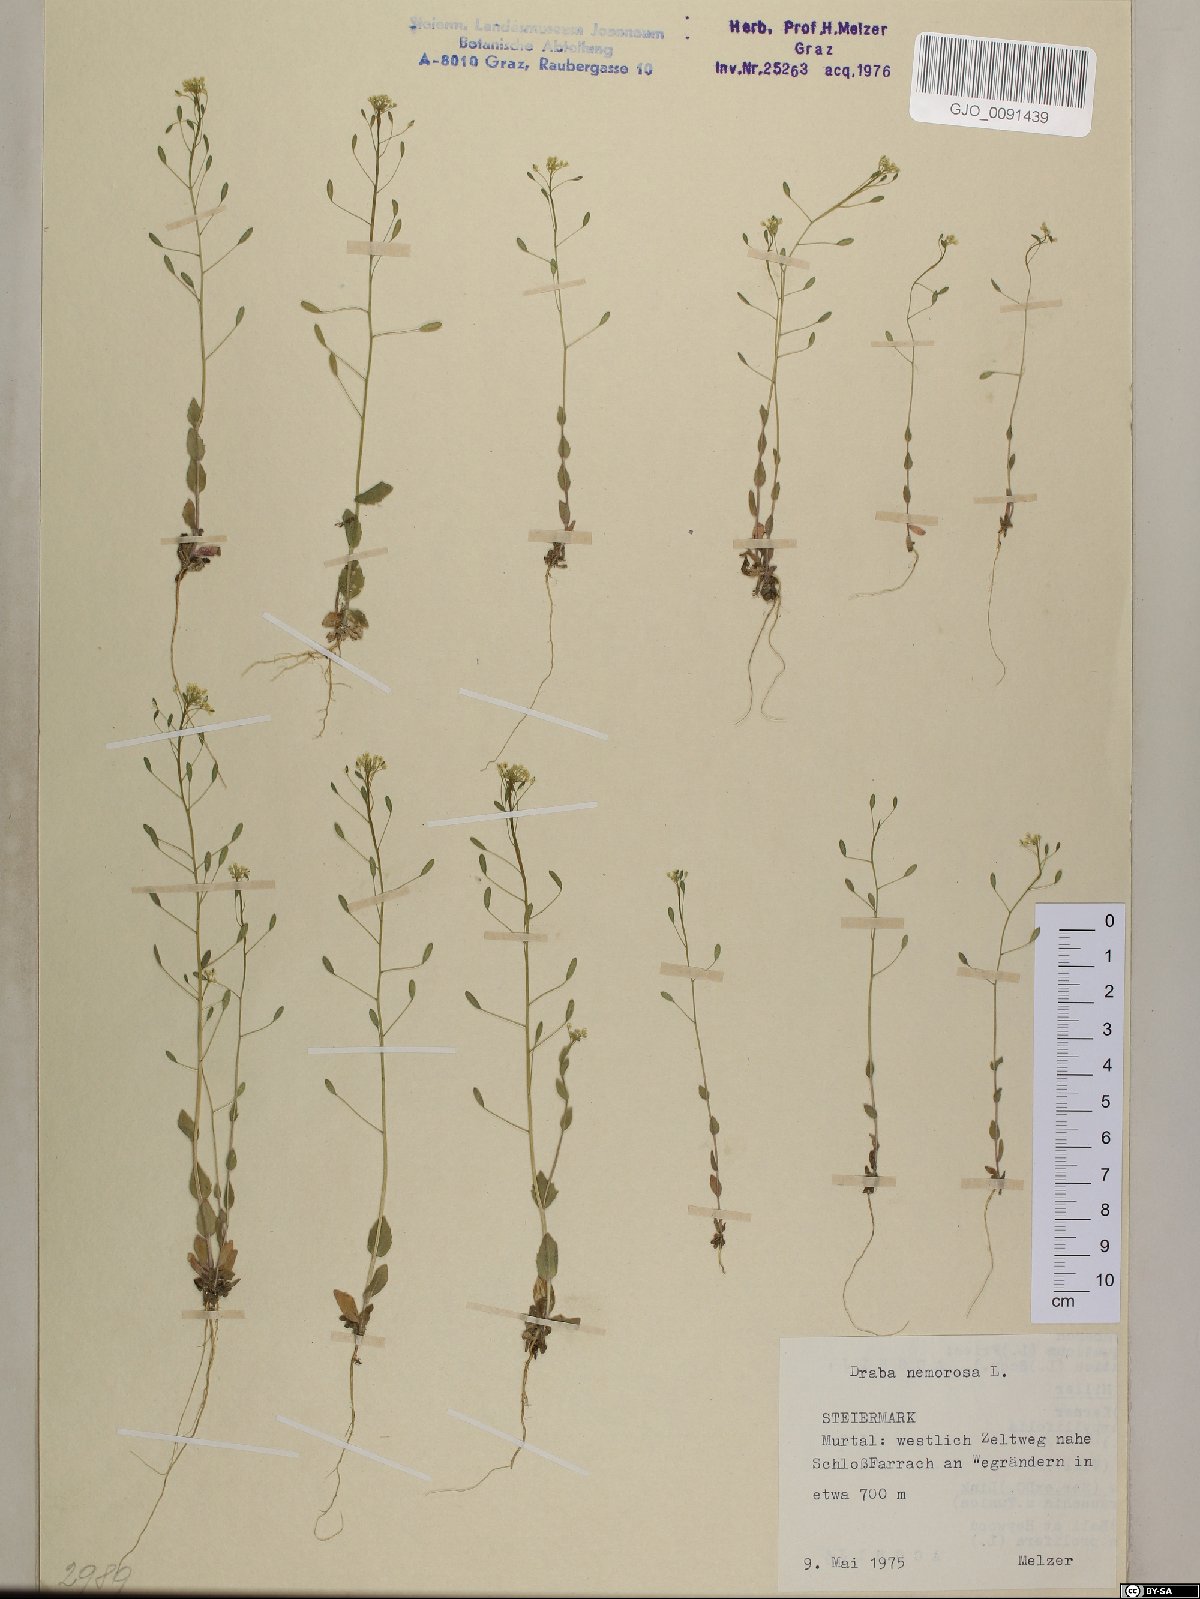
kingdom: Plantae
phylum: Tracheophyta
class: Magnoliopsida
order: Brassicales
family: Brassicaceae
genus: Draba
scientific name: Draba nemorosa
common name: Wood whitlow-grass
